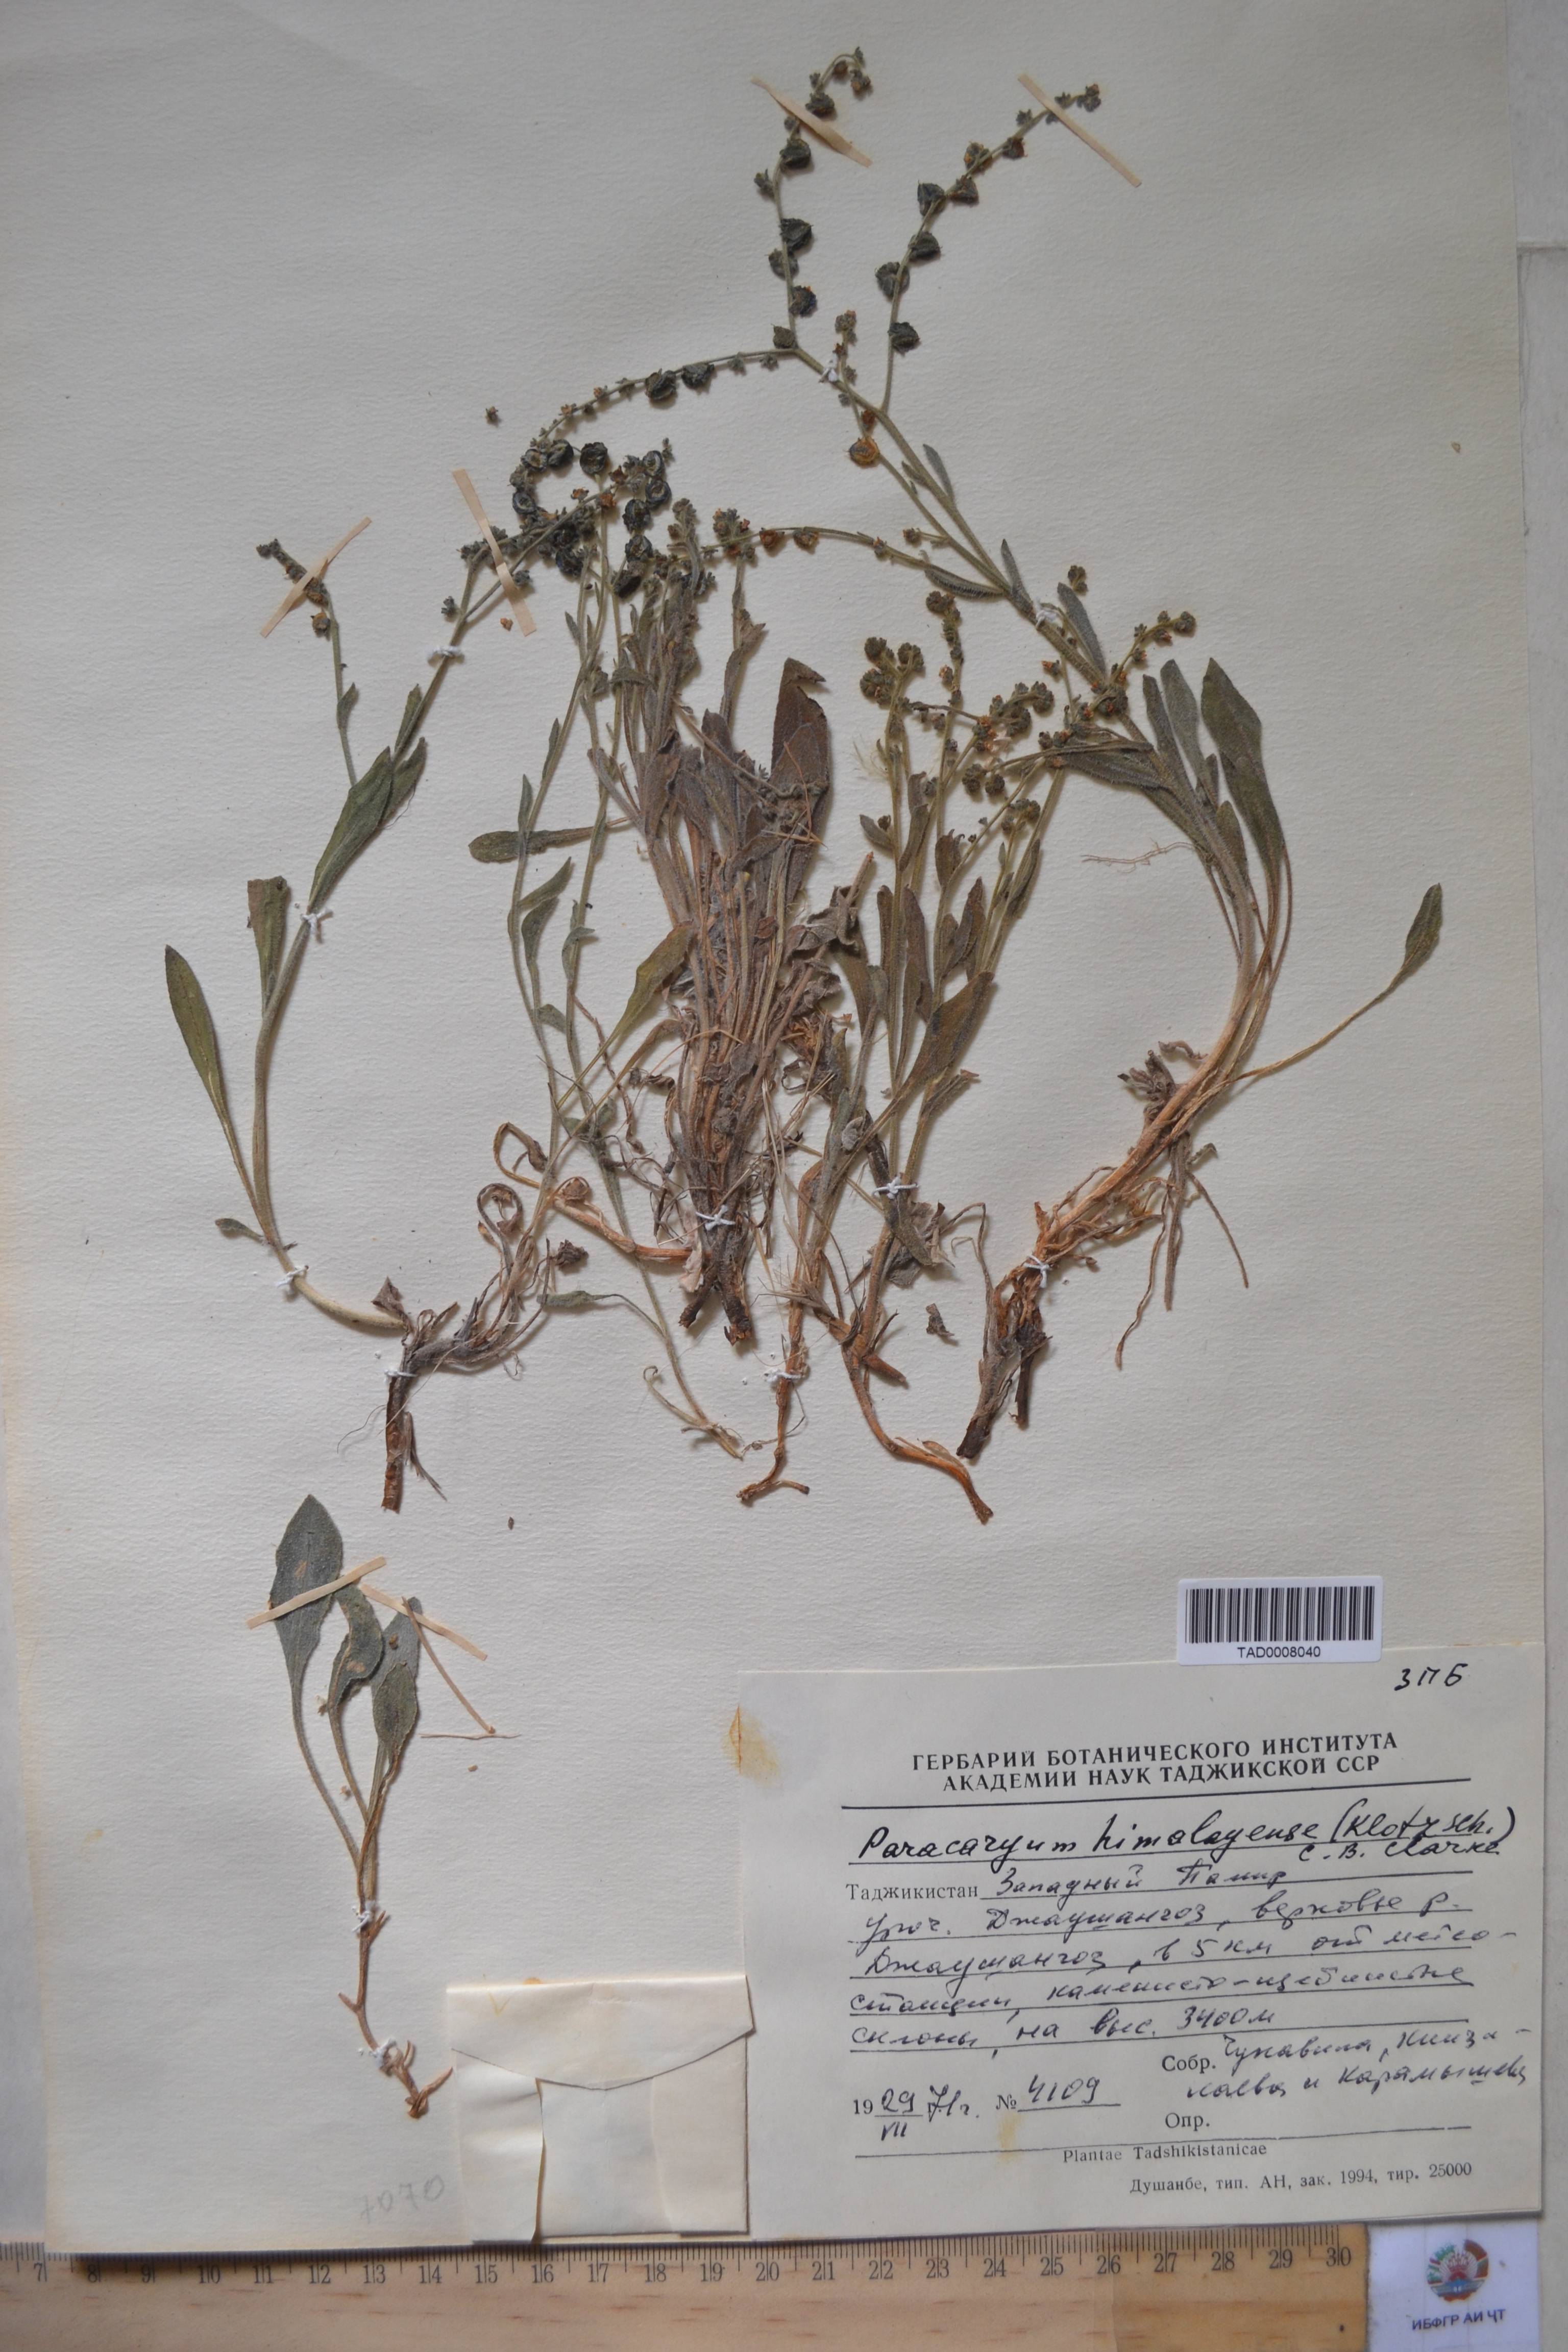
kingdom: Plantae
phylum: Tracheophyta
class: Magnoliopsida
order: Boraginales
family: Boraginaceae
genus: Paracaryum
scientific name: Paracaryum himalayense
